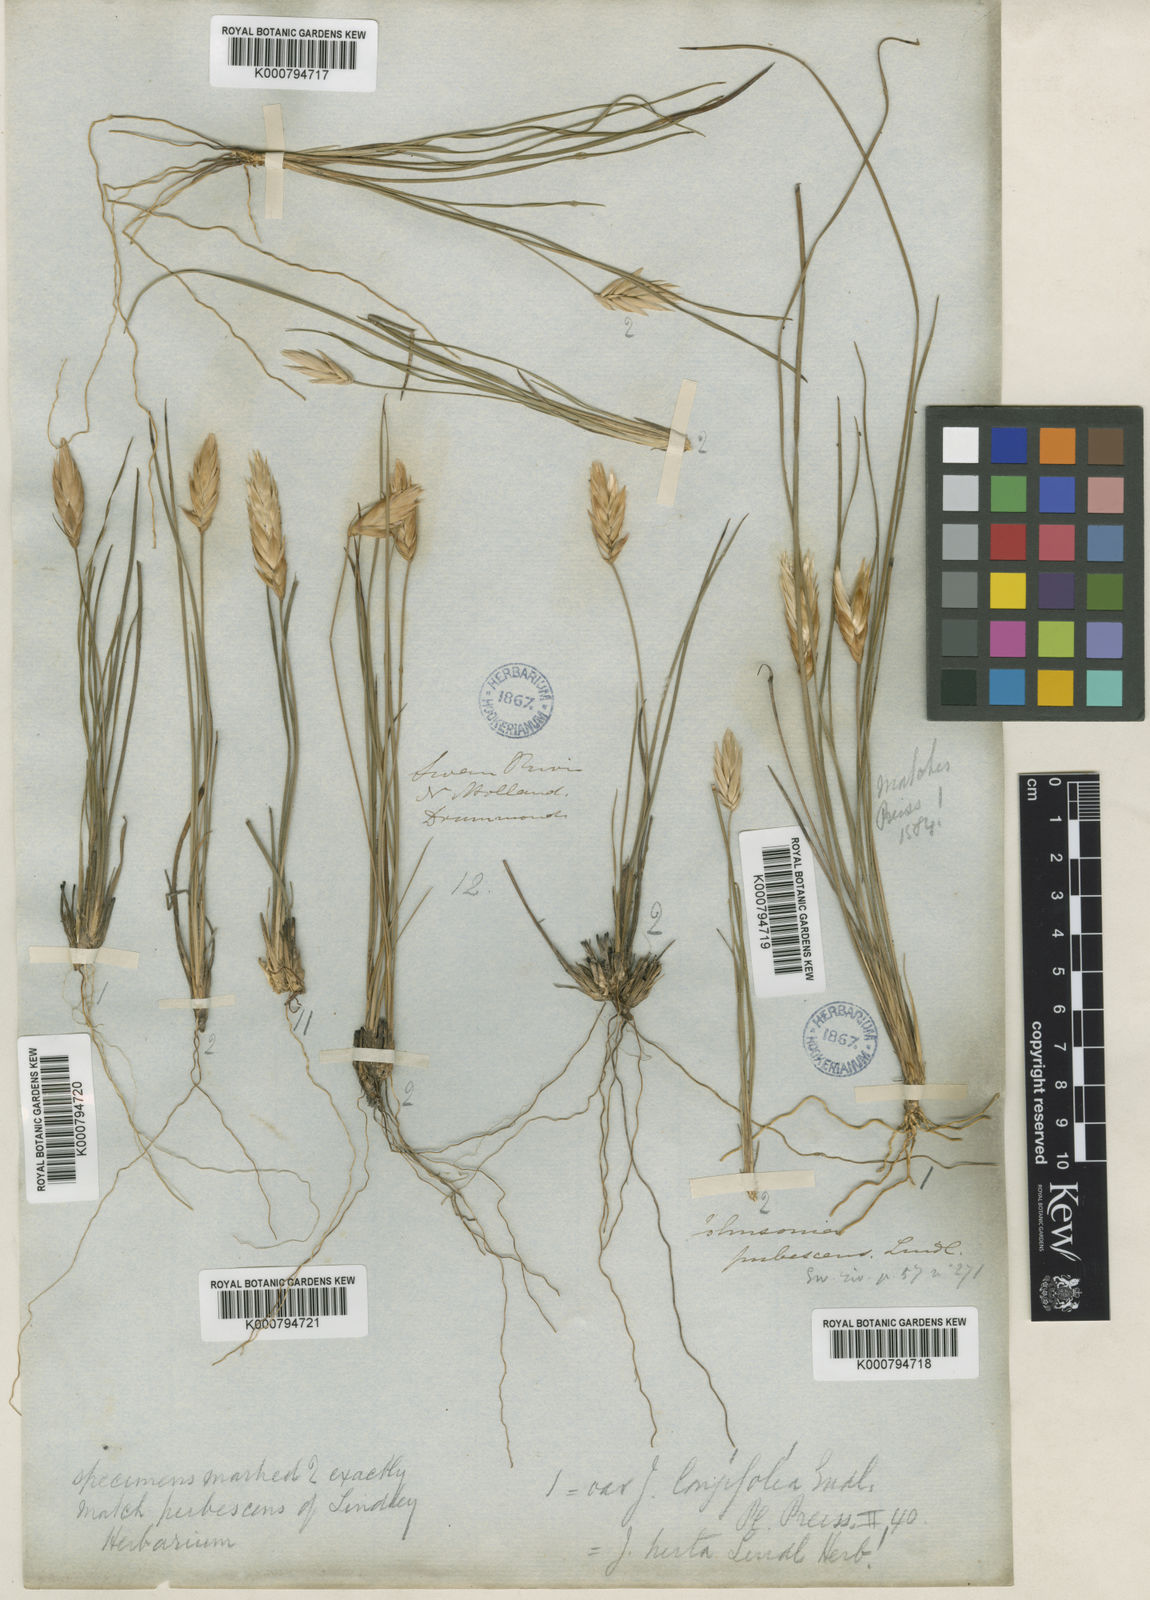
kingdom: Plantae
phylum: Tracheophyta
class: Liliopsida
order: Asparagales
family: Asphodelaceae
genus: Johnsonia
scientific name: Johnsonia pubescens
